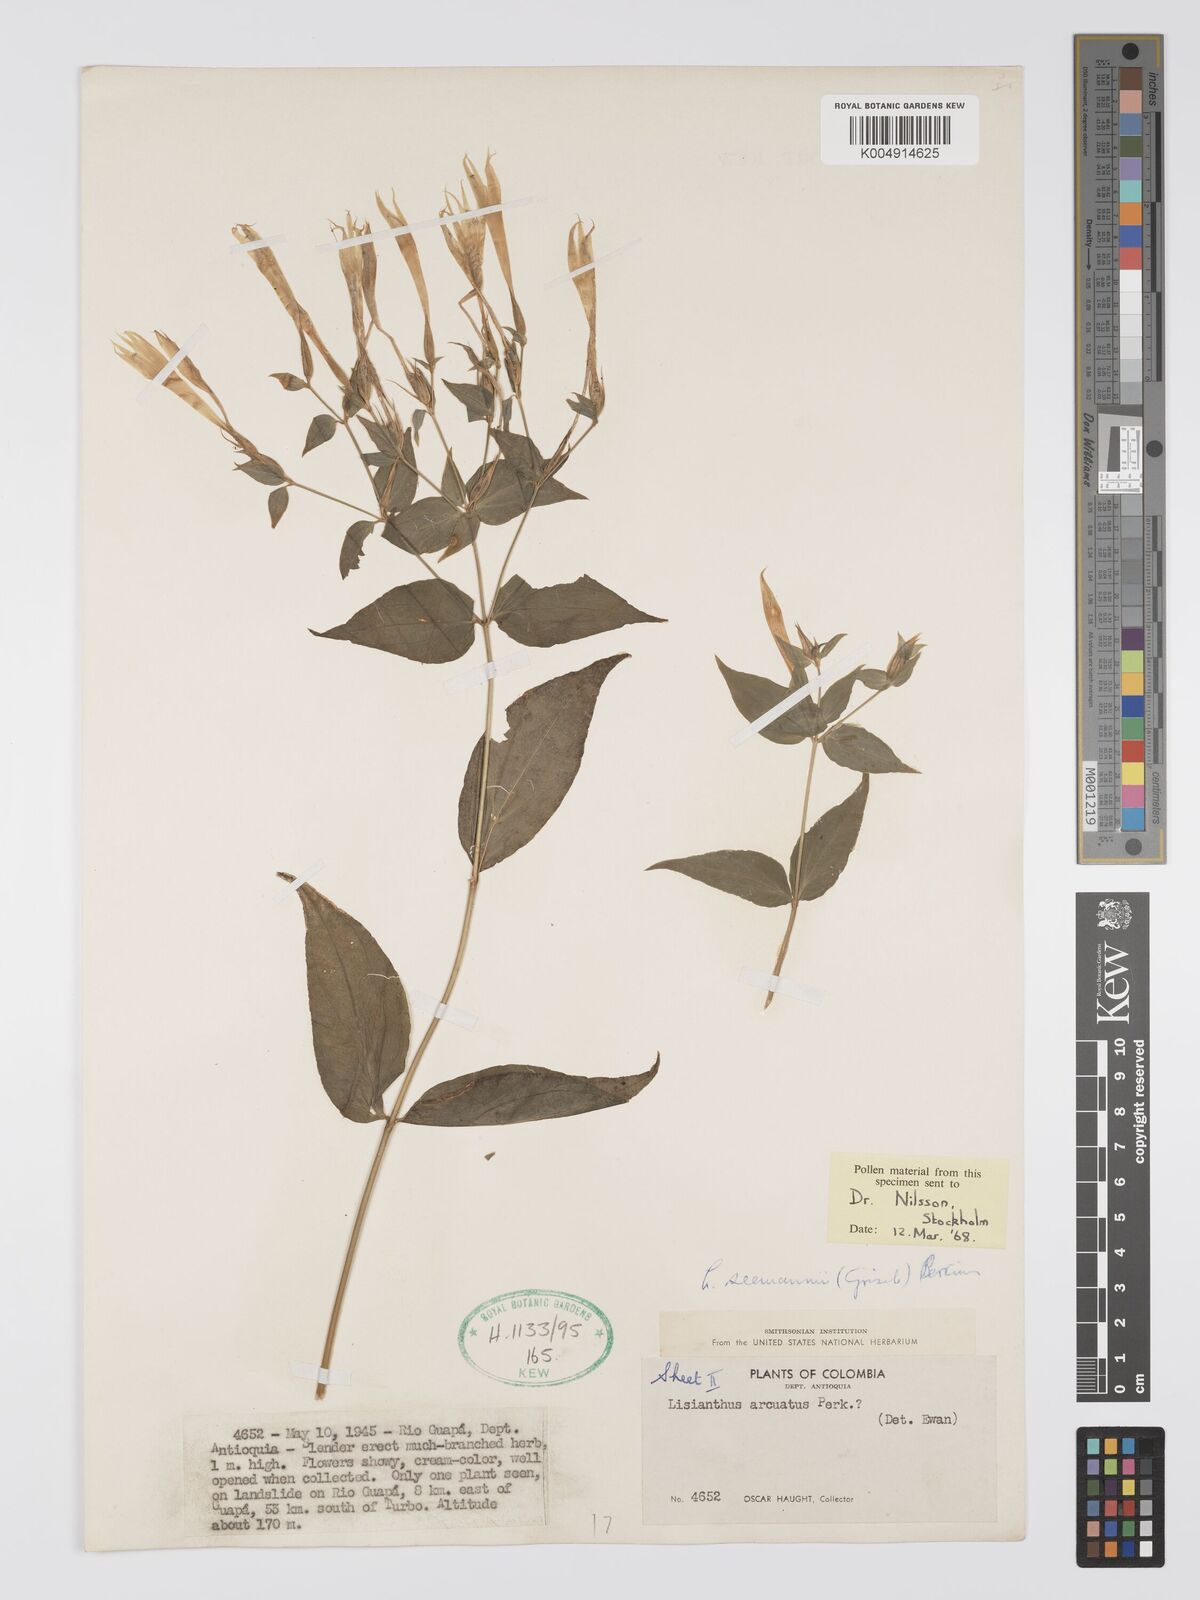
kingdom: Plantae
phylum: Tracheophyta
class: Magnoliopsida
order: Gentianales
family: Gentianaceae
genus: Lisianthus
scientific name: Lisianthus seemannii
